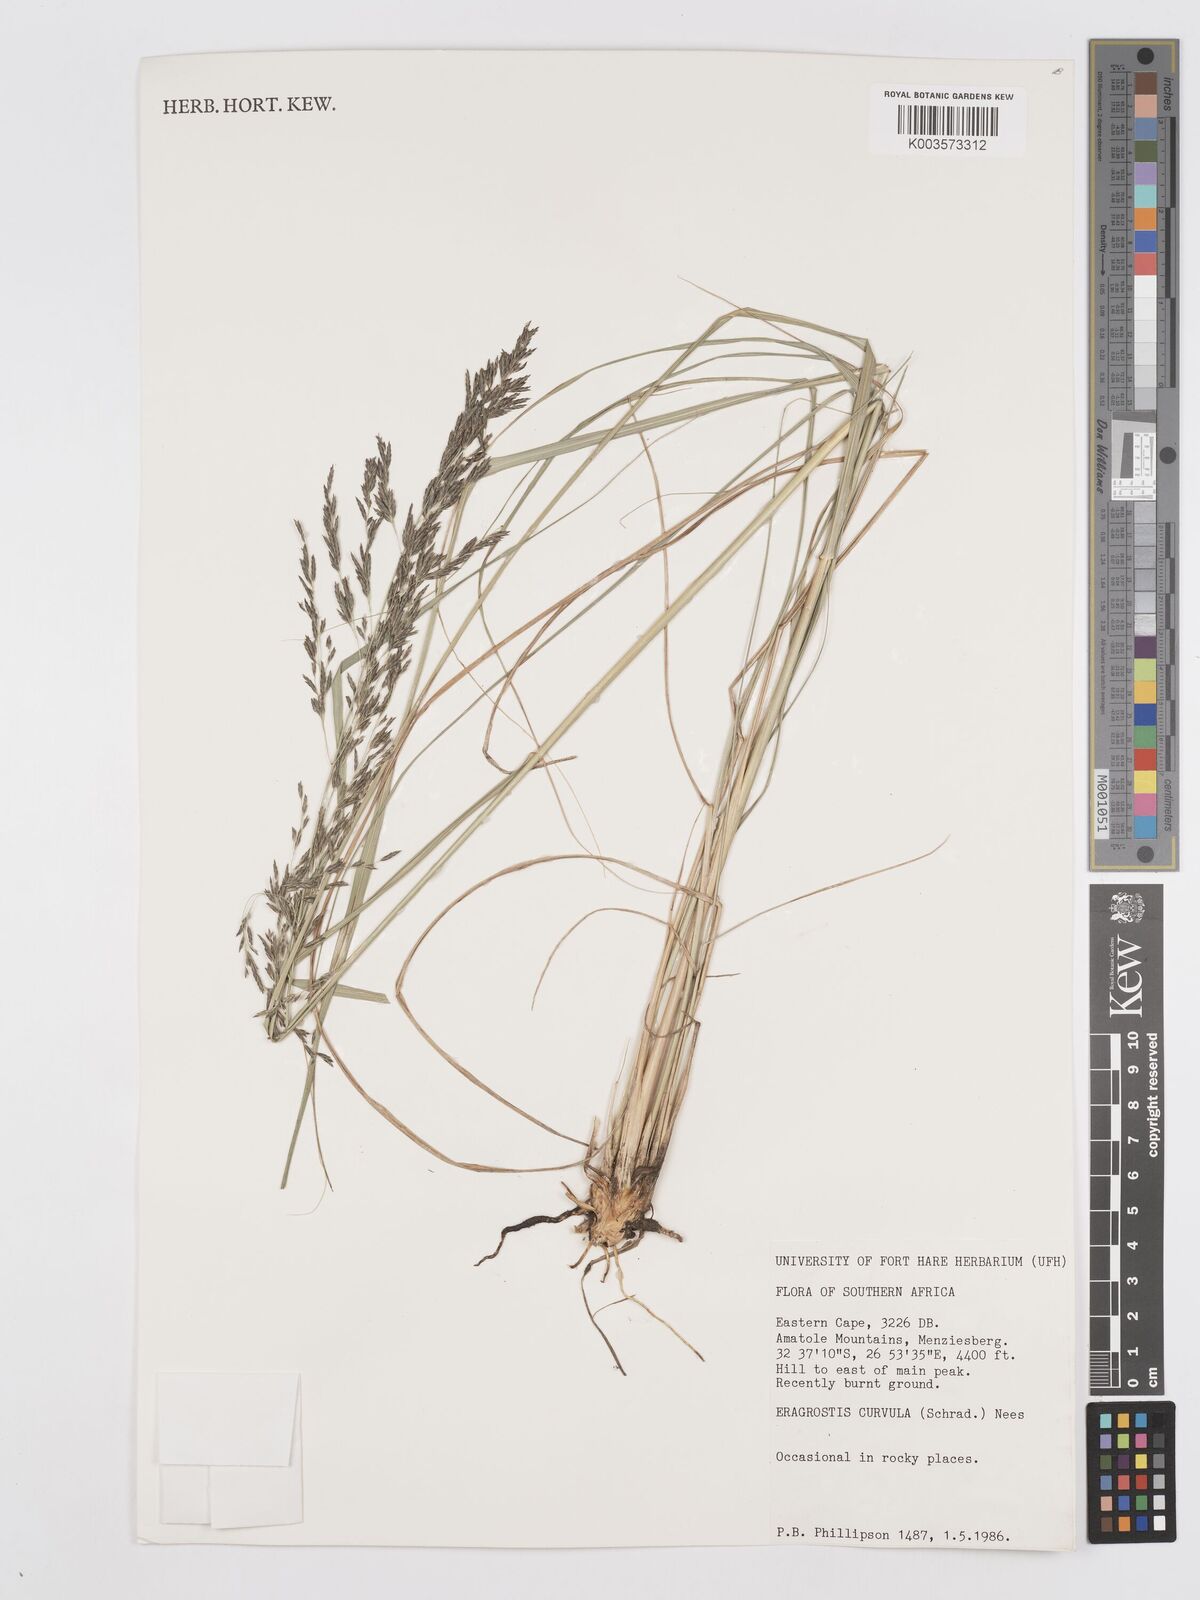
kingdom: Plantae
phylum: Tracheophyta
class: Liliopsida
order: Poales
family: Poaceae
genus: Eragrostis
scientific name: Eragrostis curvula
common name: African love-grass
